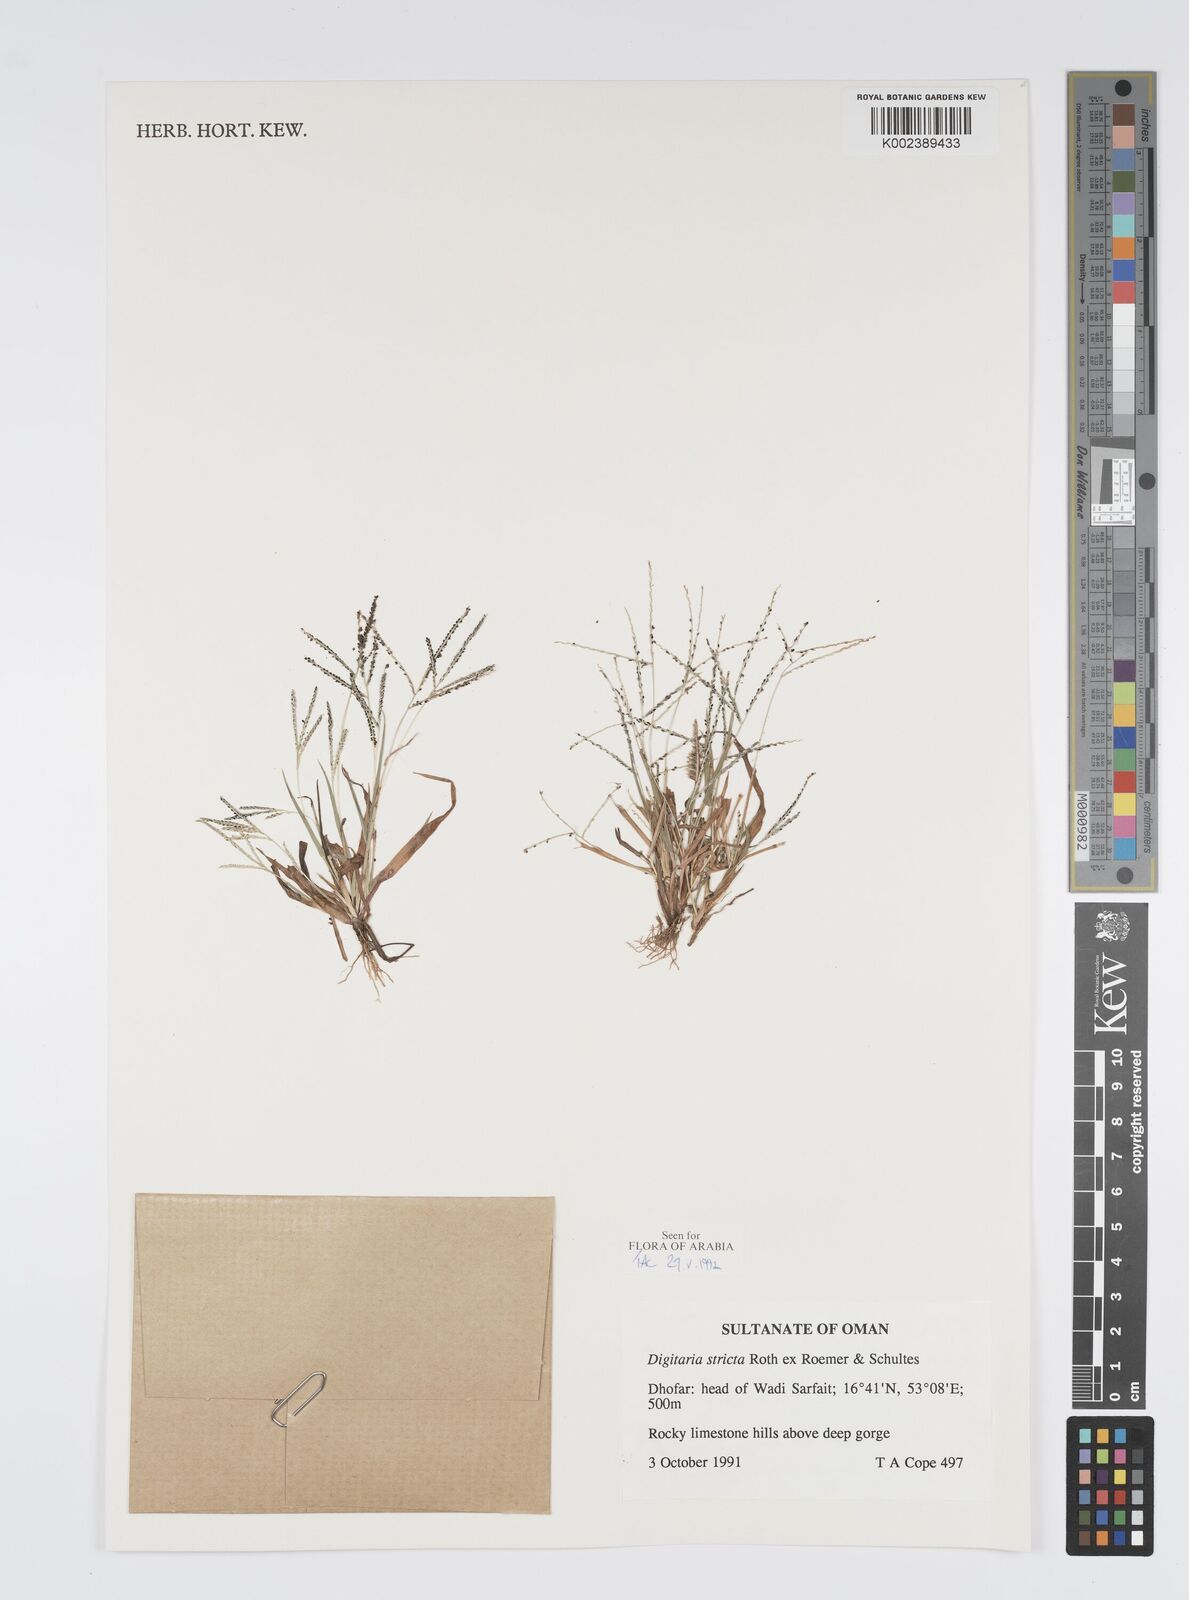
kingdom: Plantae
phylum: Tracheophyta
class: Liliopsida
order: Poales
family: Poaceae
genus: Digitaria
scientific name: Digitaria stricta
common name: Crabgrass
